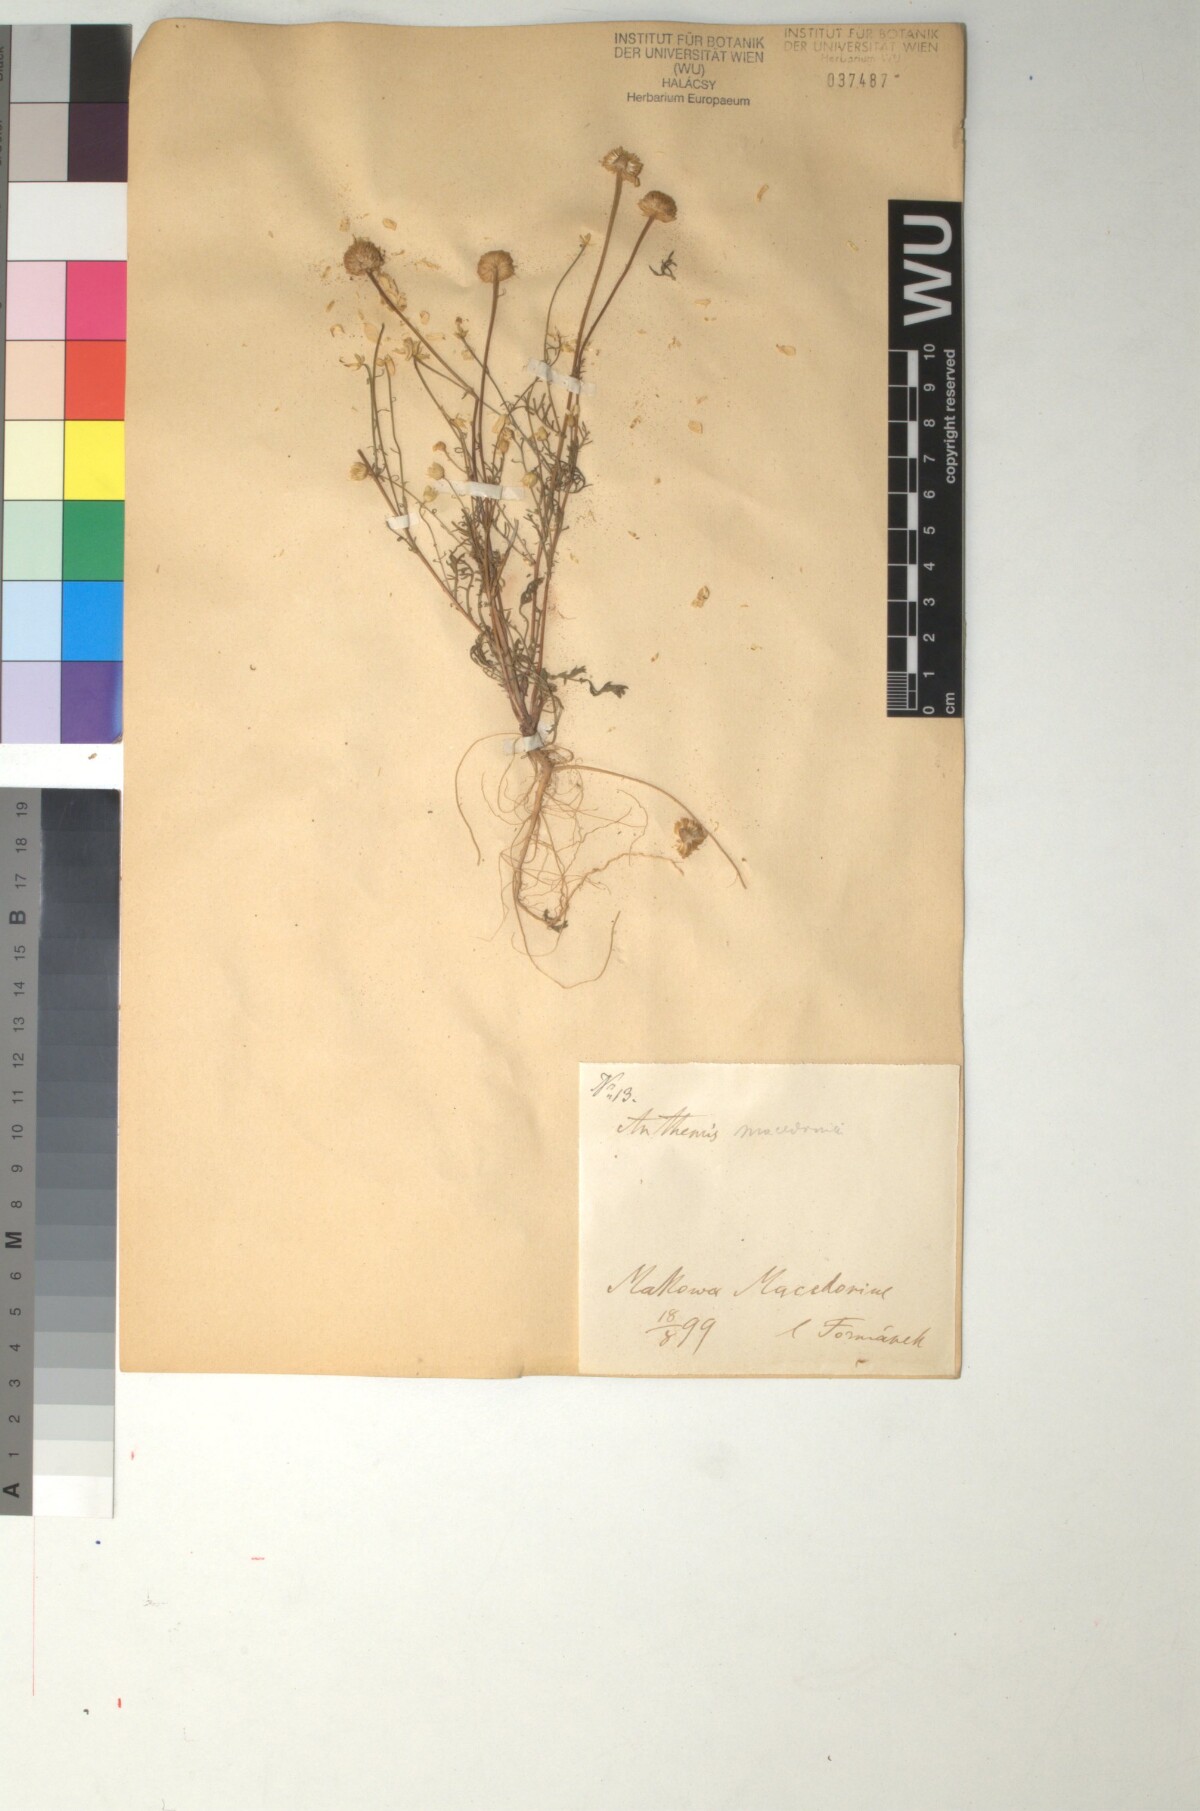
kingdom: Plantae
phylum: Tracheophyta
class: Magnoliopsida
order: Asterales
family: Asteraceae
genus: Anthemis
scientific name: Anthemis macedonica
